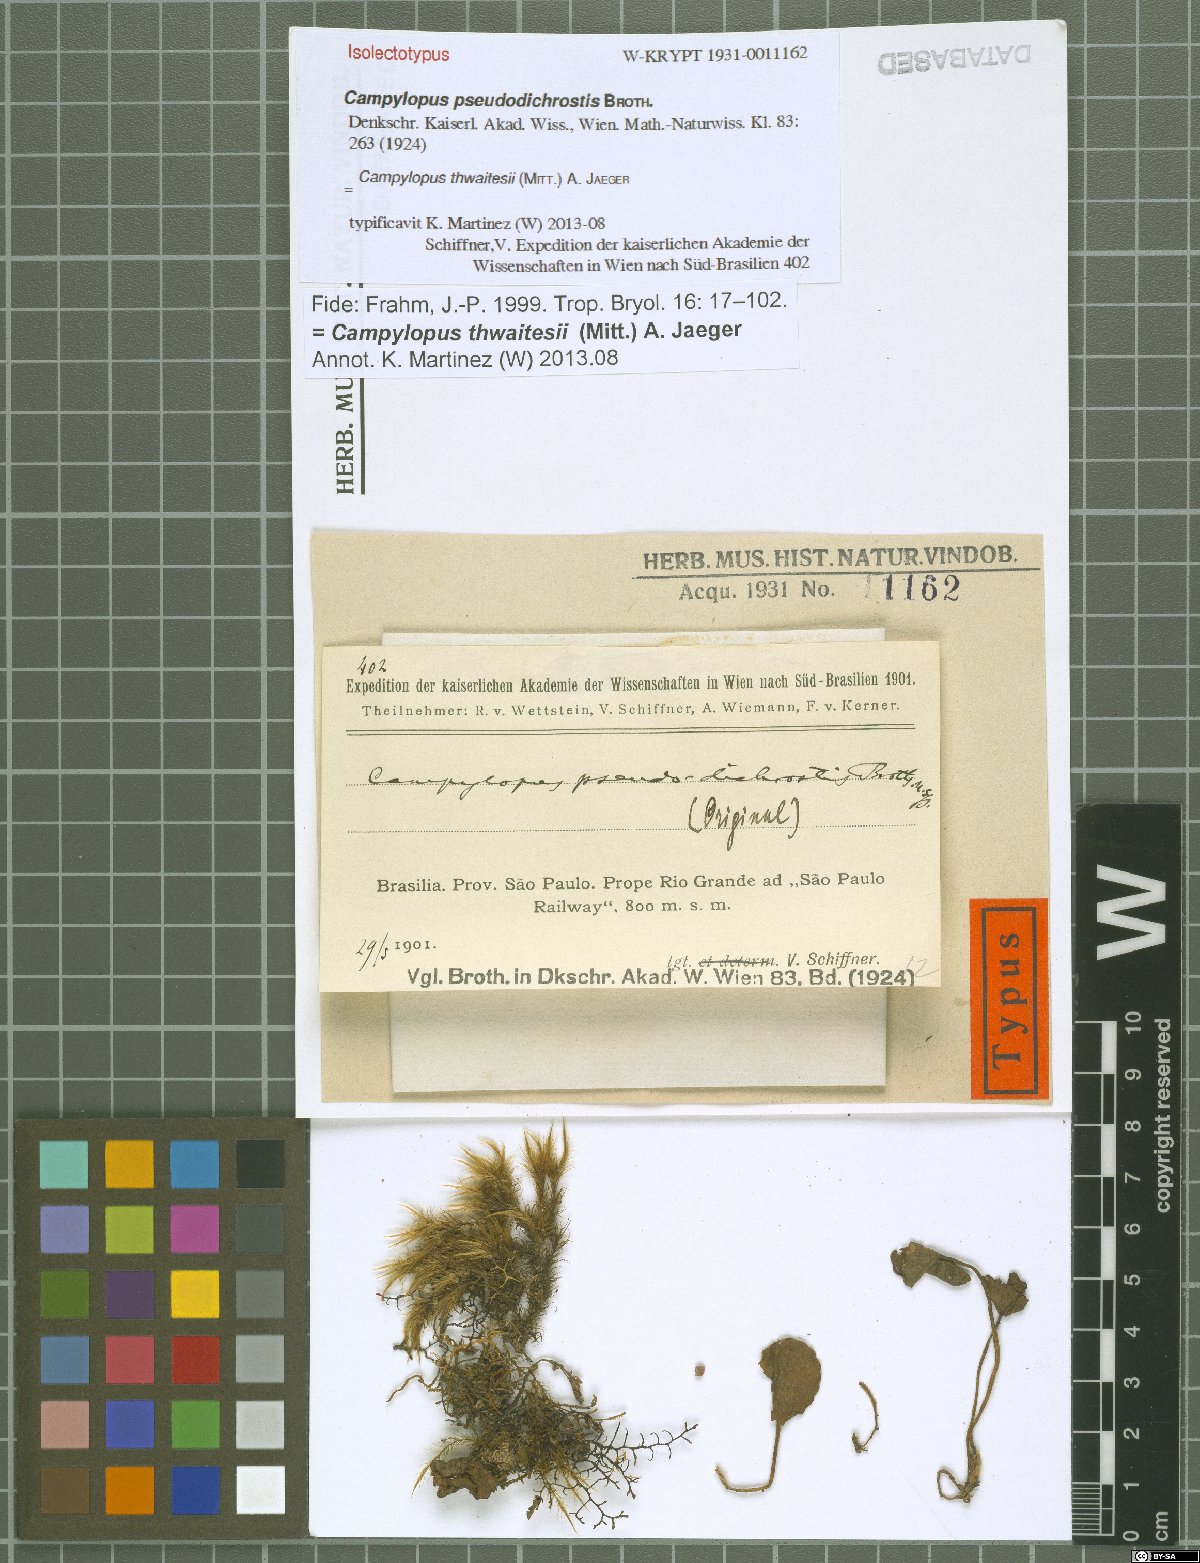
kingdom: Plantae
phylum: Bryophyta
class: Bryopsida
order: Dicranales
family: Leucobryaceae
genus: Campylopus
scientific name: Campylopus thwaitesii
